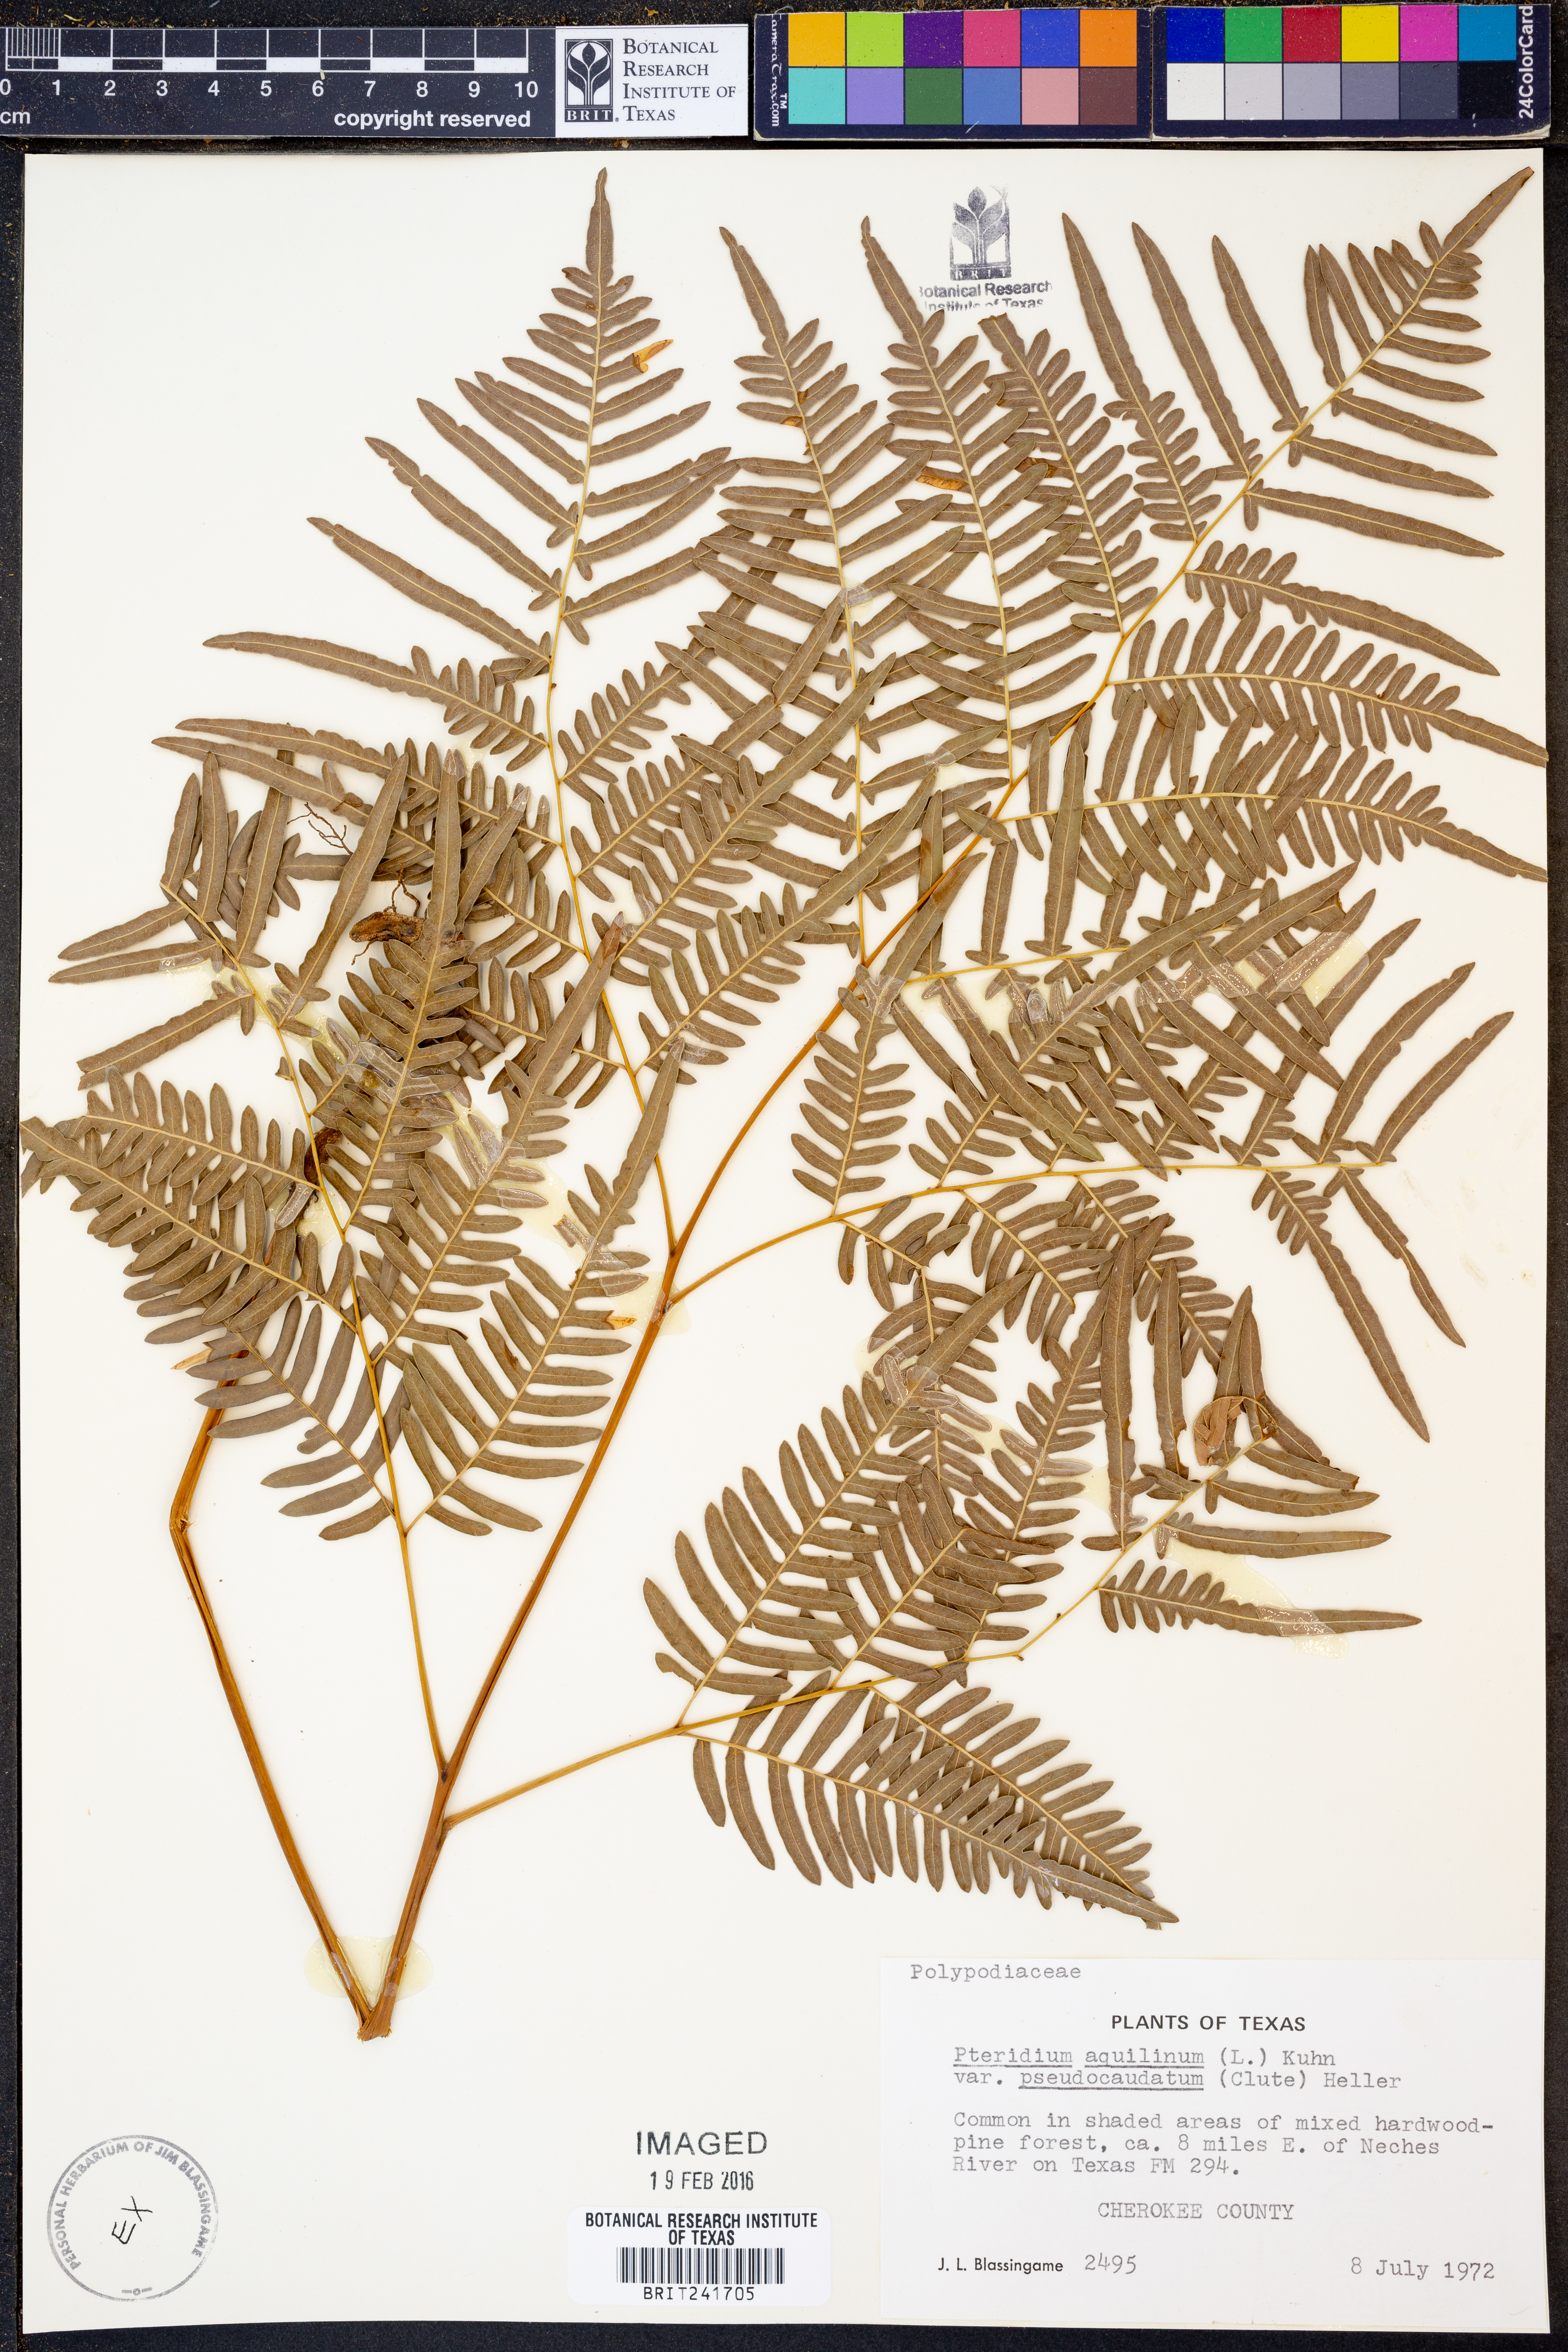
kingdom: Plantae
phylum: Tracheophyta
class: Polypodiopsida
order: Polypodiales
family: Dennstaedtiaceae
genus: Pteridium
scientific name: Pteridium aquilinum
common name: Bracken
